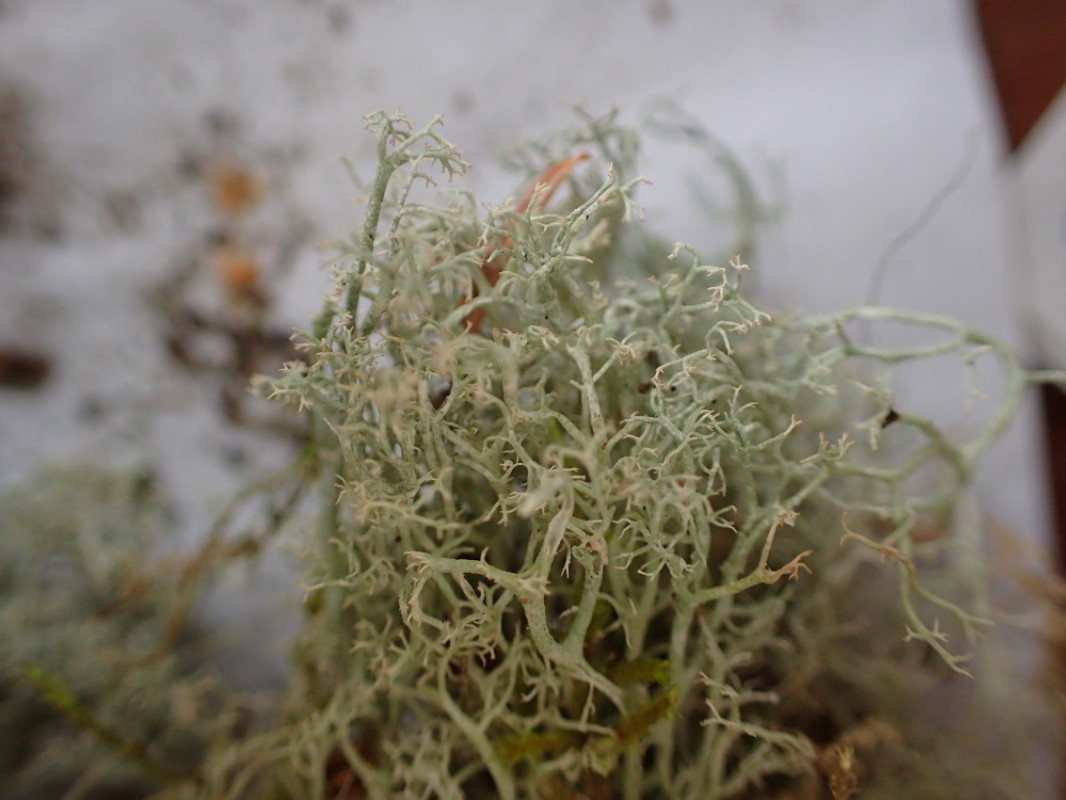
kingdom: Fungi
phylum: Ascomycota
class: Lecanoromycetes
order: Lecanorales
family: Cladoniaceae
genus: Cladonia
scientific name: Cladonia portentosa
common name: hede-rensdyrlav
